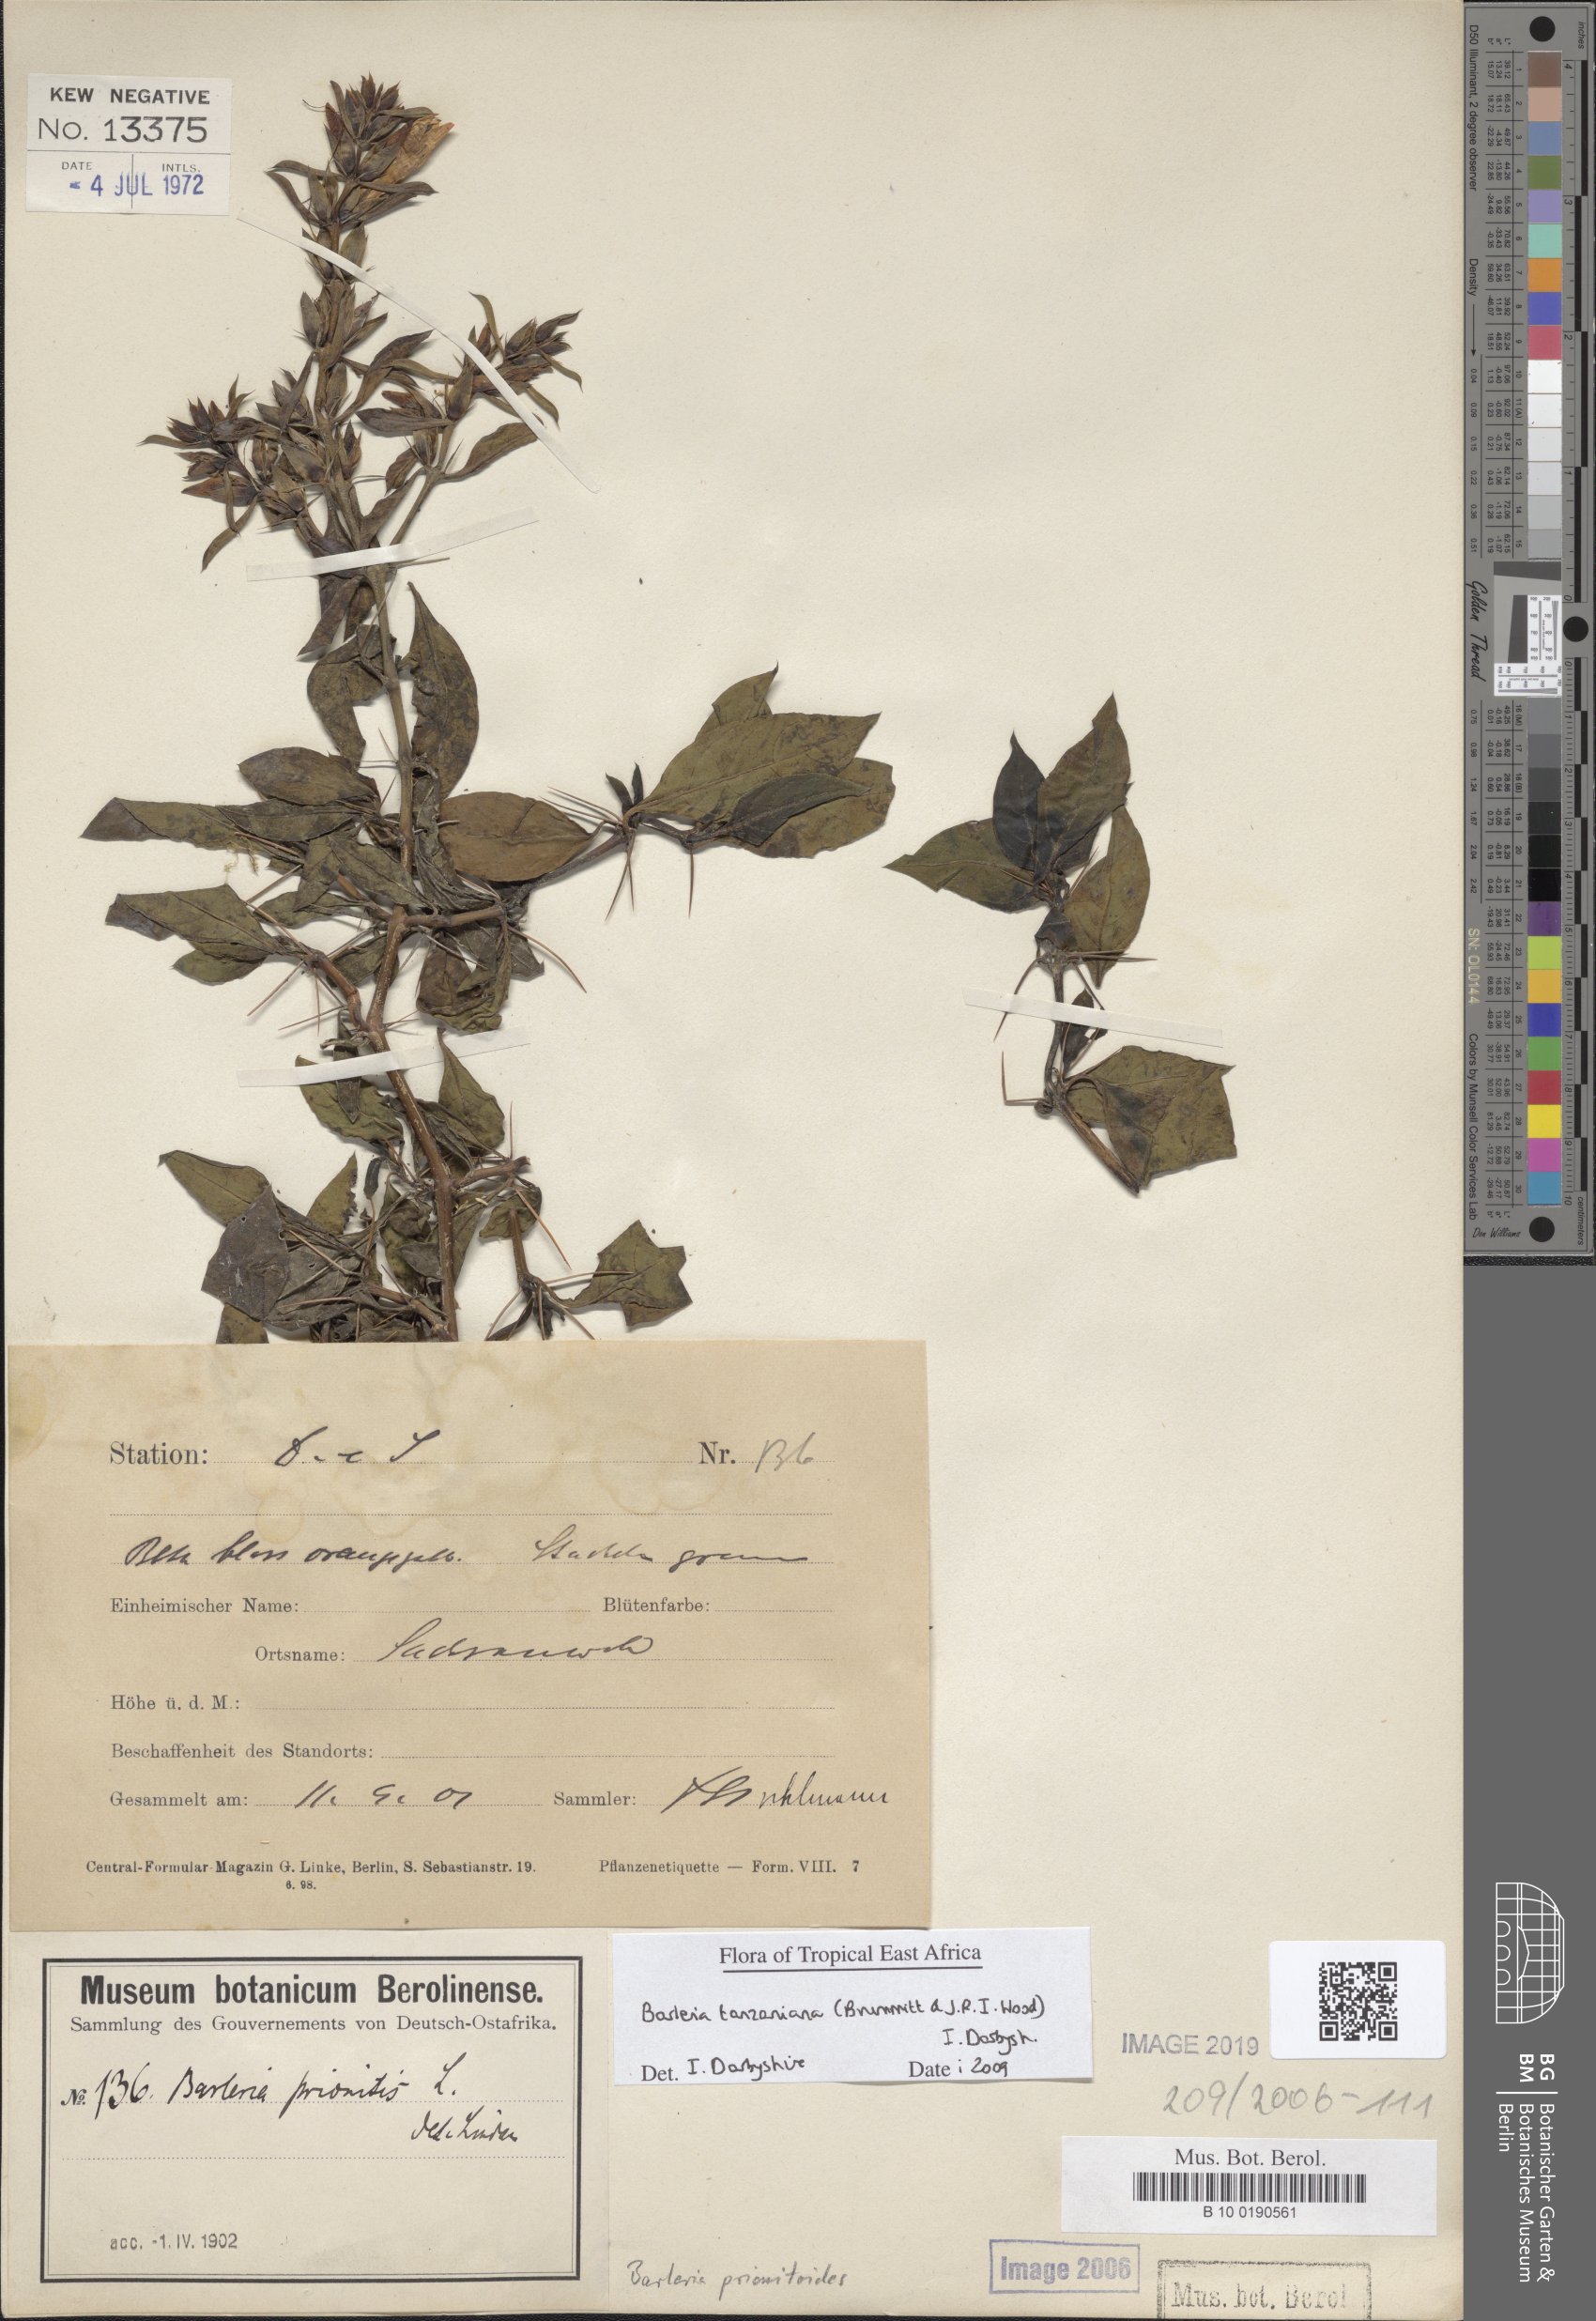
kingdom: Plantae
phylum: Tracheophyta
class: Magnoliopsida
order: Lamiales
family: Acanthaceae
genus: Barleria
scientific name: Barleria tanzaniana
